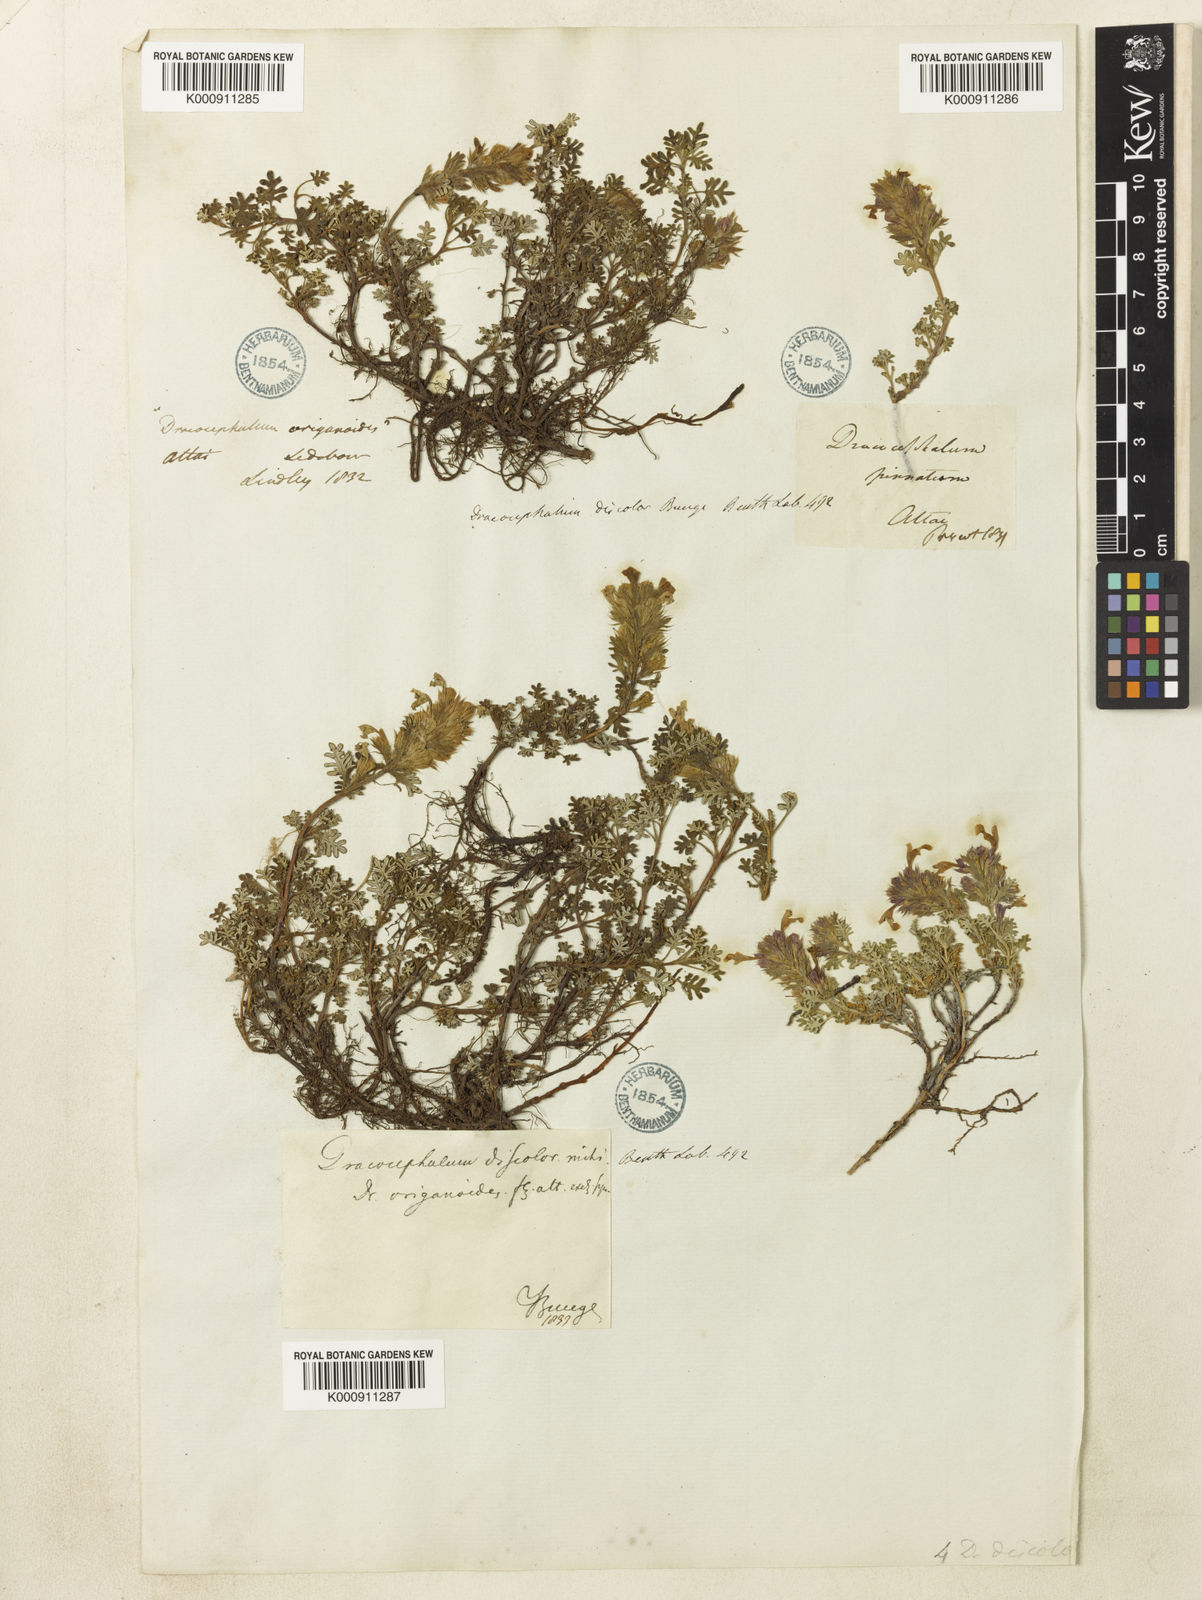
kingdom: Plantae
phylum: Tracheophyta
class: Magnoliopsida
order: Lamiales
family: Lamiaceae
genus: Dracocephalum
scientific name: Dracocephalum
